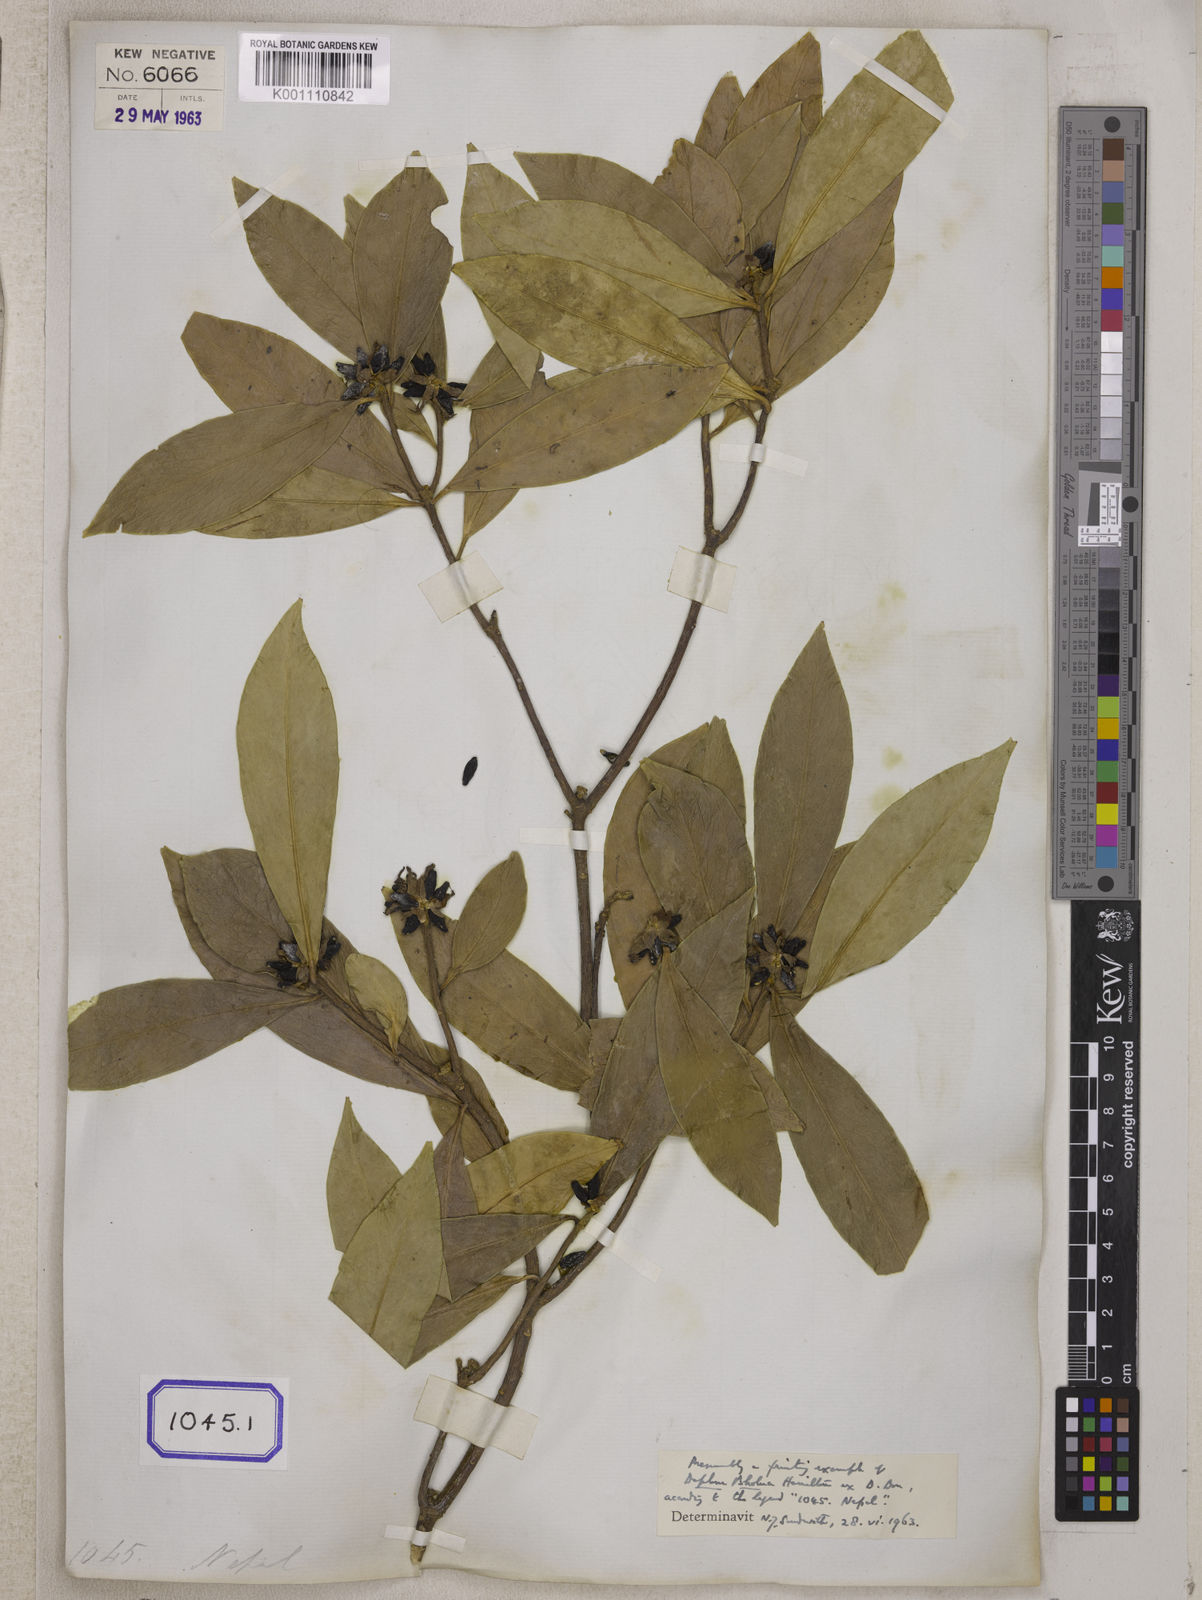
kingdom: Plantae
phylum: Tracheophyta
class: Magnoliopsida
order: Malvales
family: Thymelaeaceae
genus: Wikstroemia
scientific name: Wikstroemia indica
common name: Tiebush
